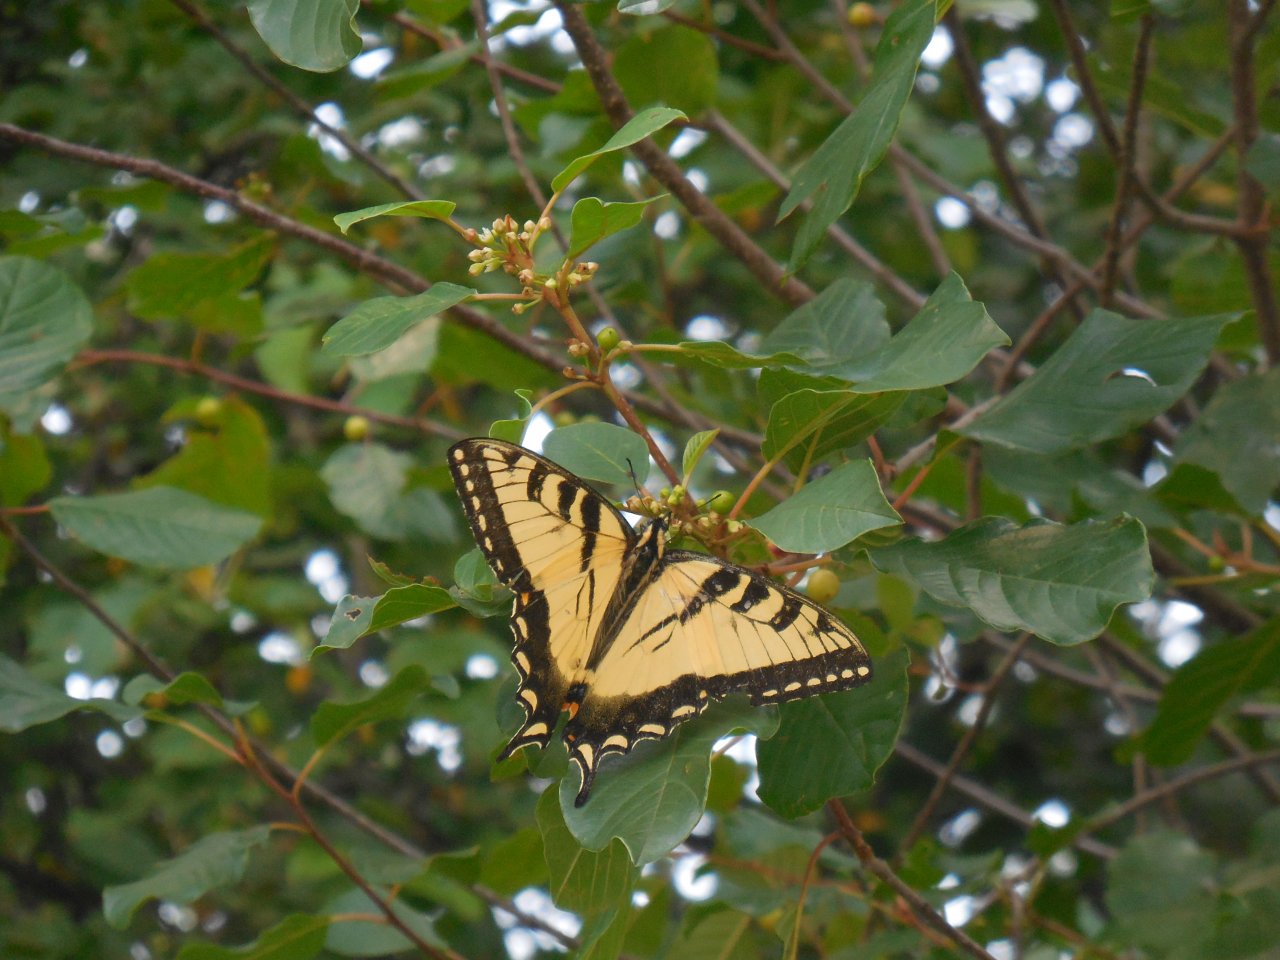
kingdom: Animalia
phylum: Arthropoda
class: Insecta
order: Lepidoptera
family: Papilionidae
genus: Pterourus
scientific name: Pterourus
